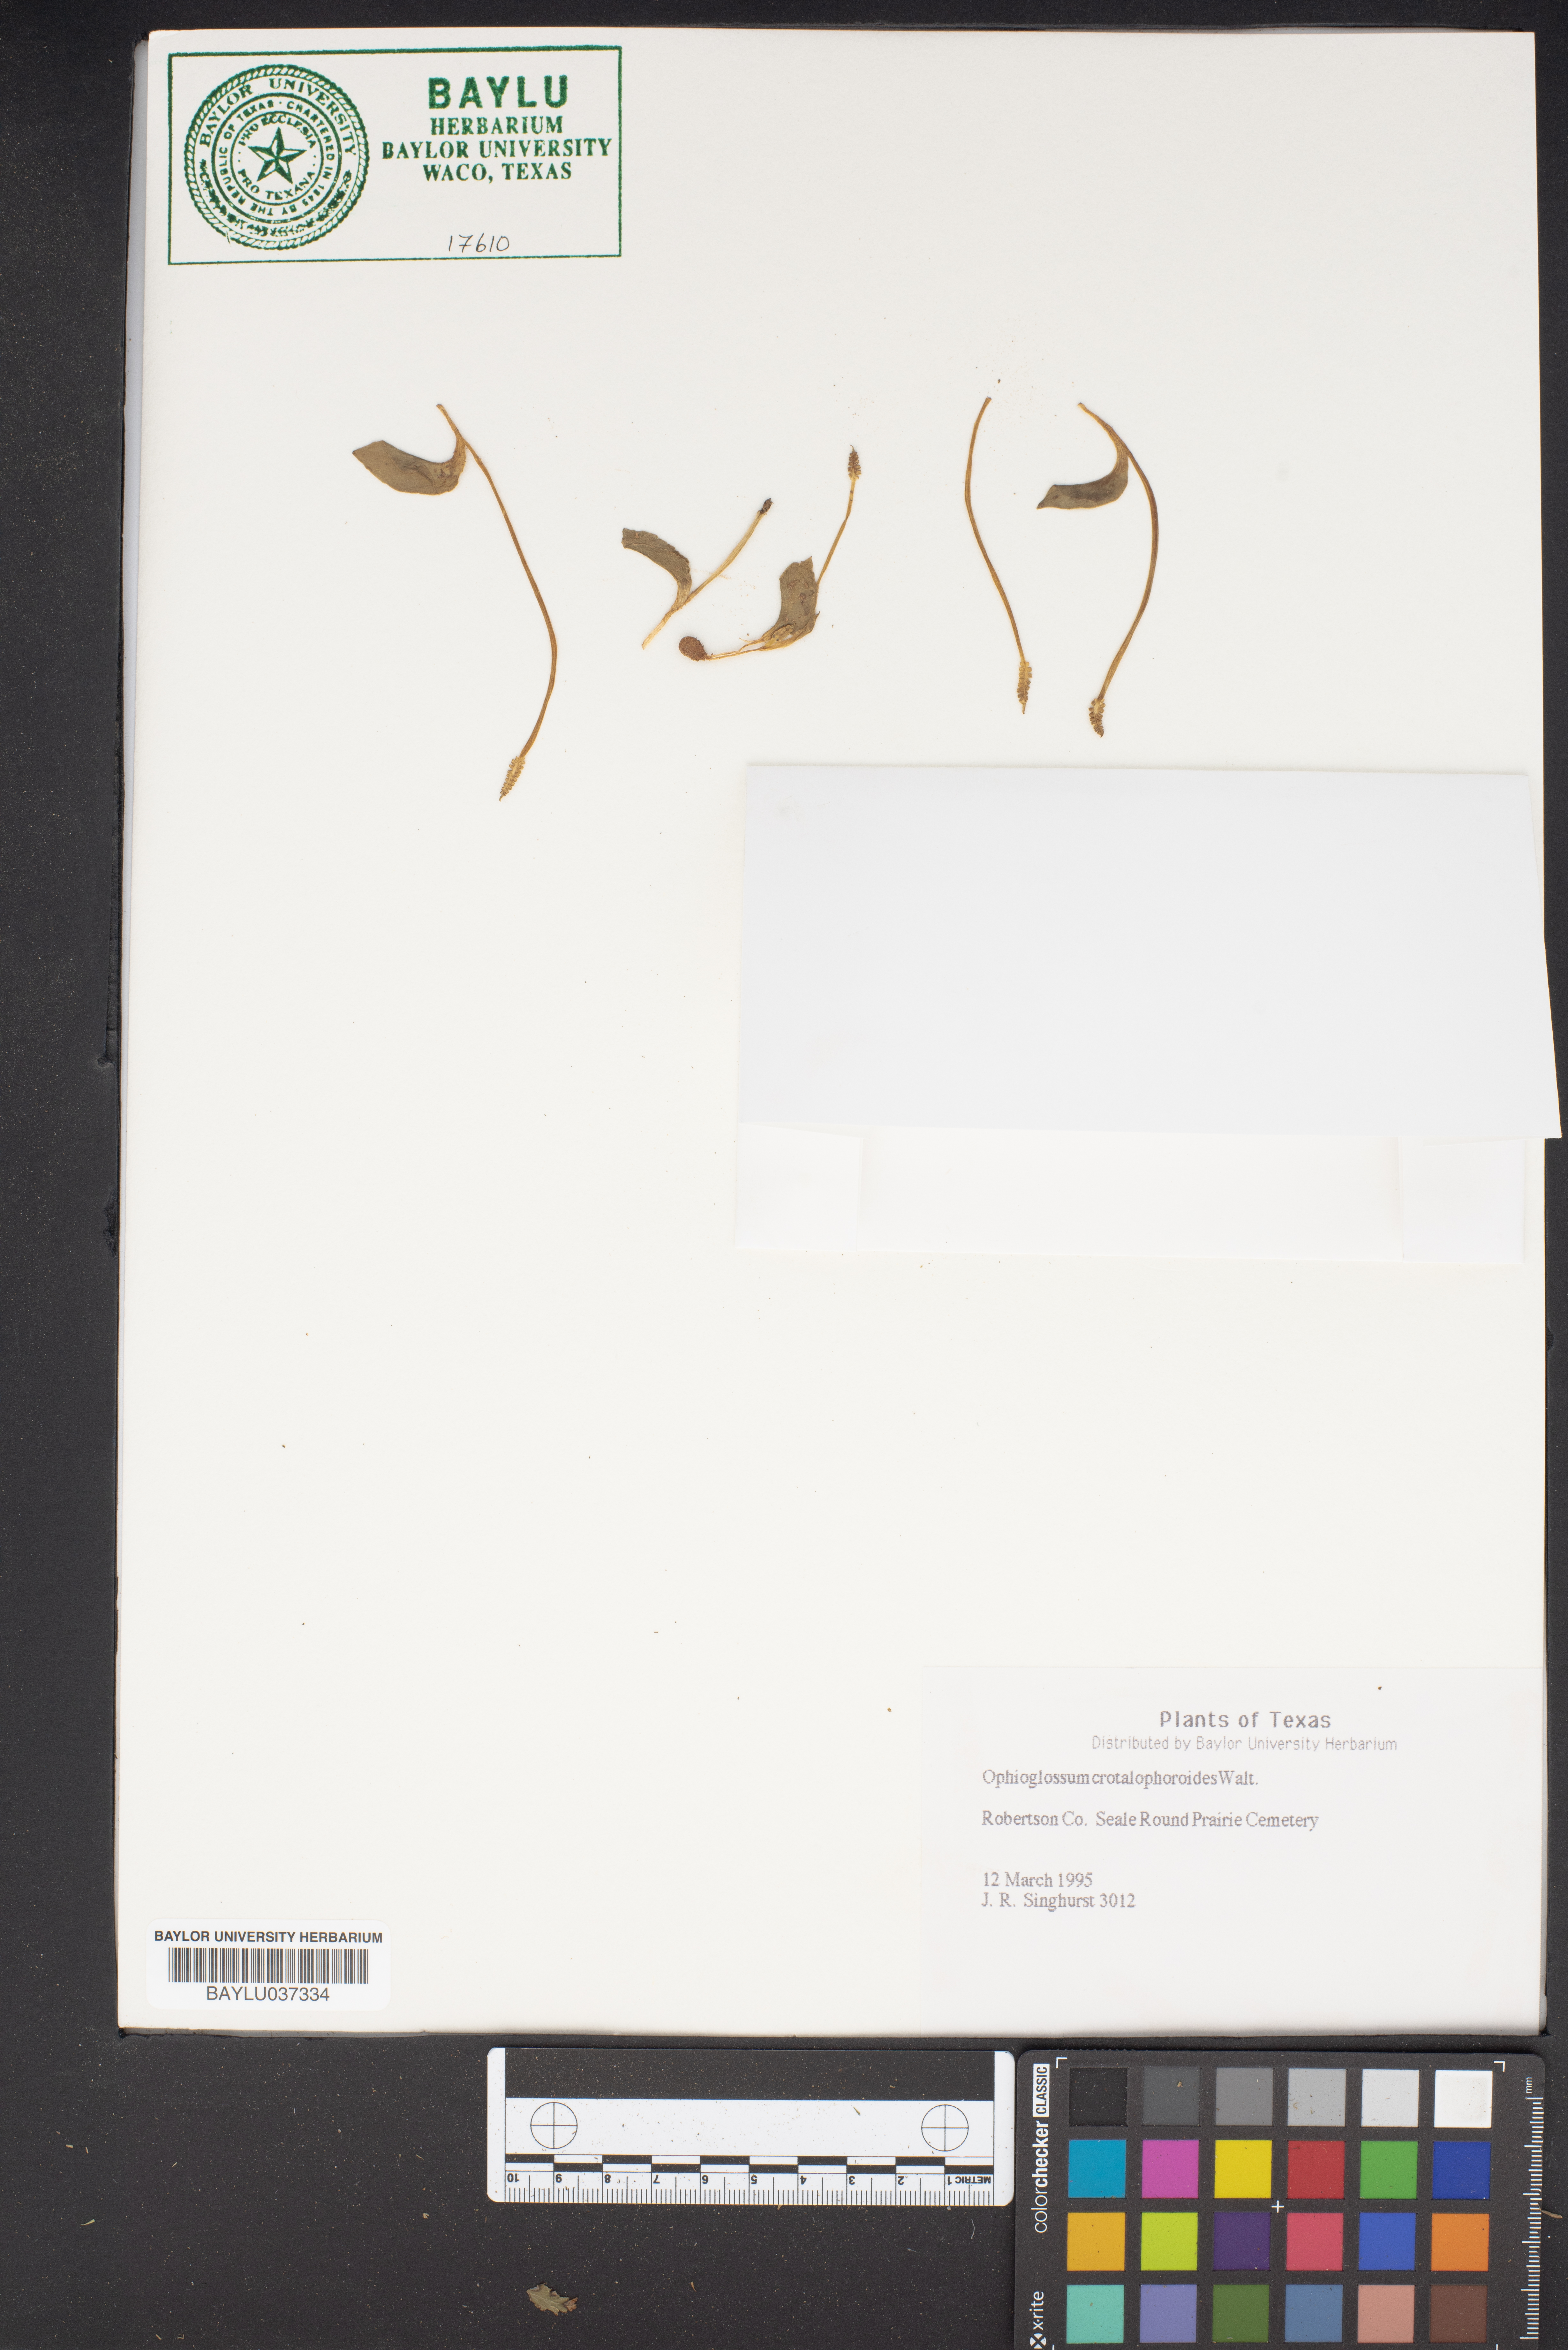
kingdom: Plantae
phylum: Tracheophyta
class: Polypodiopsida
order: Ophioglossales
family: Ophioglossaceae
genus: Ophioglossum
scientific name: Ophioglossum crotalophoroides
